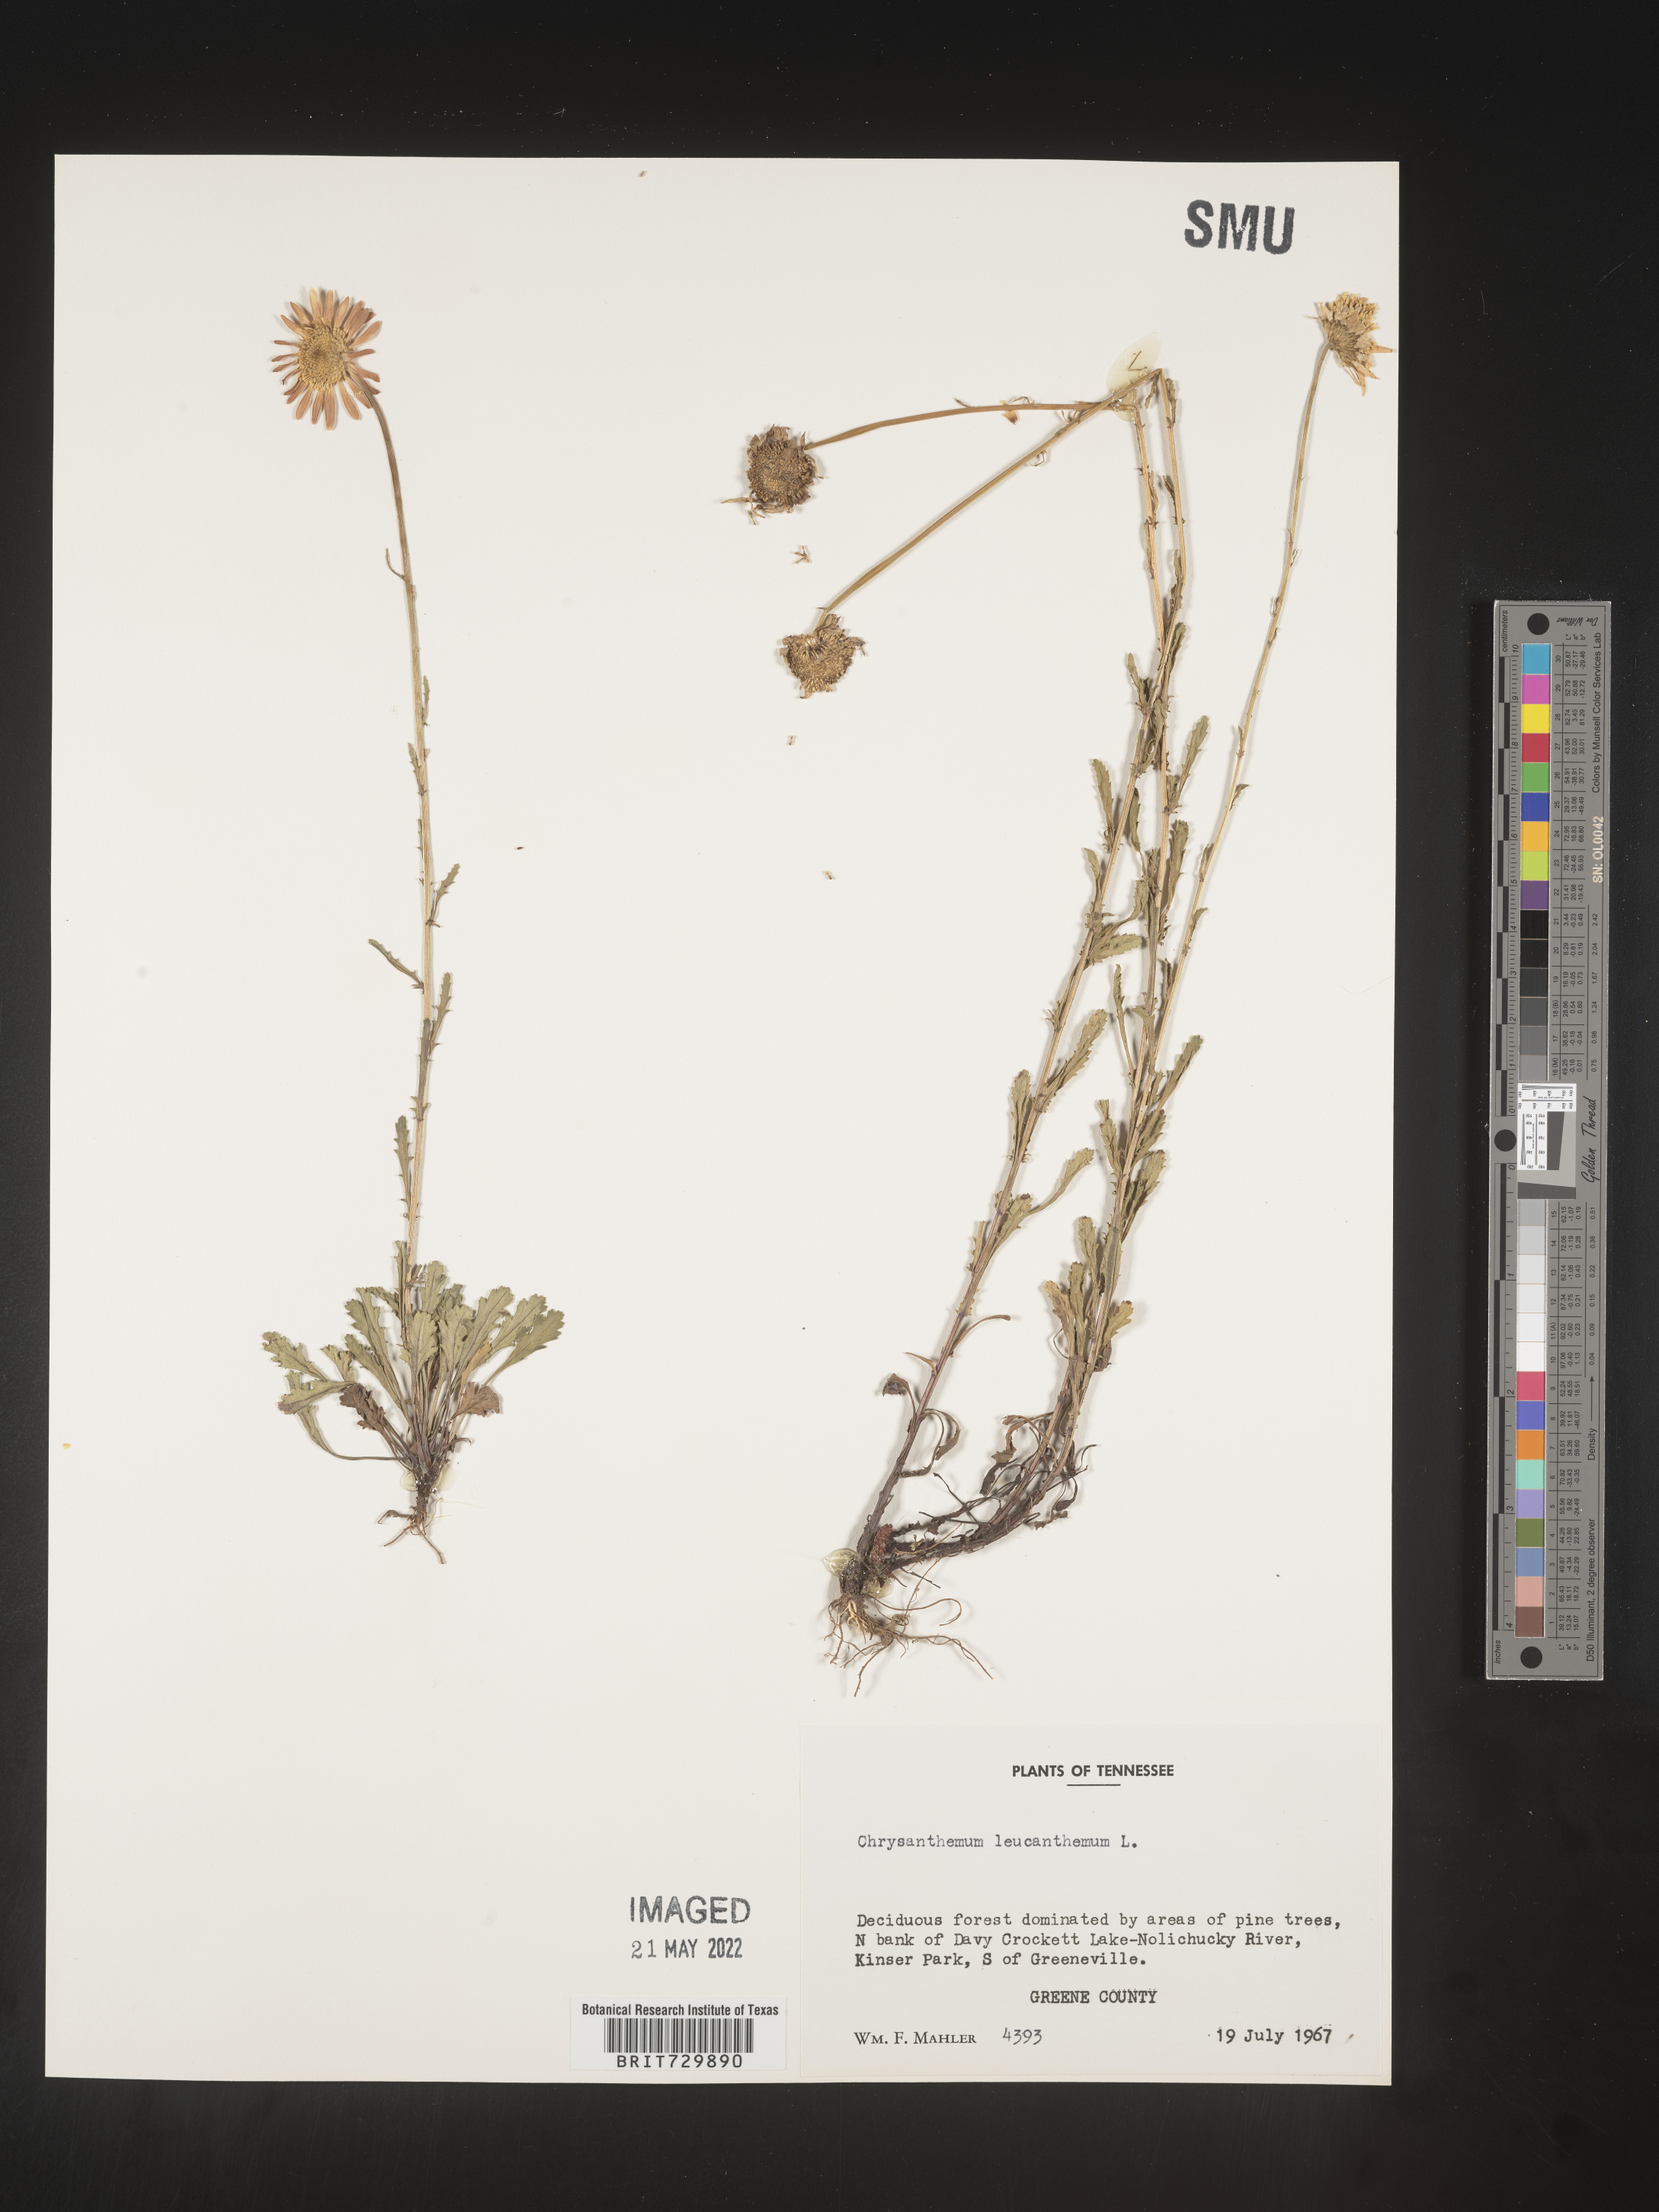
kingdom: Plantae
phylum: Tracheophyta
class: Magnoliopsida
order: Asterales
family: Asteraceae
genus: Leucanthemum
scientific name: Leucanthemum vulgare
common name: Oxeye daisy
